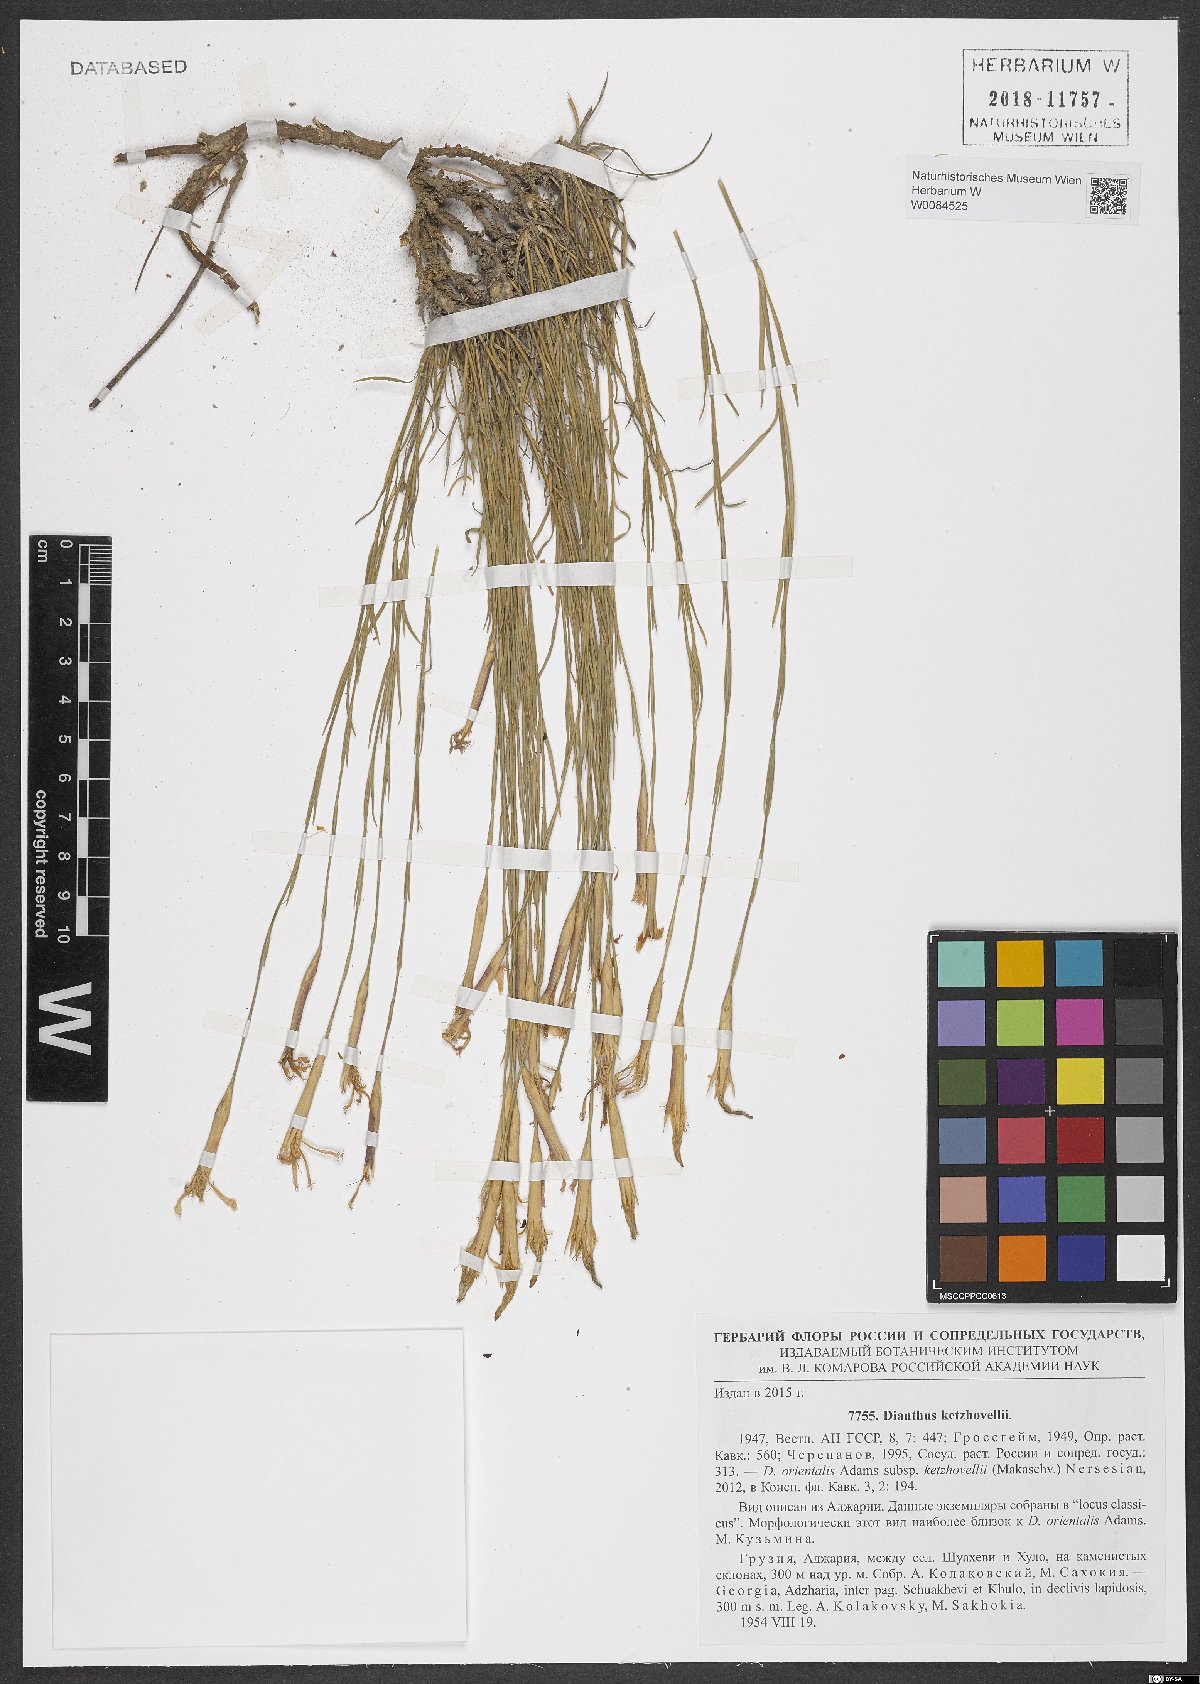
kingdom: Plantae
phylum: Tracheophyta
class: Magnoliopsida
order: Caryophyllales
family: Caryophyllaceae
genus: Dianthus
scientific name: Dianthus orientalis
